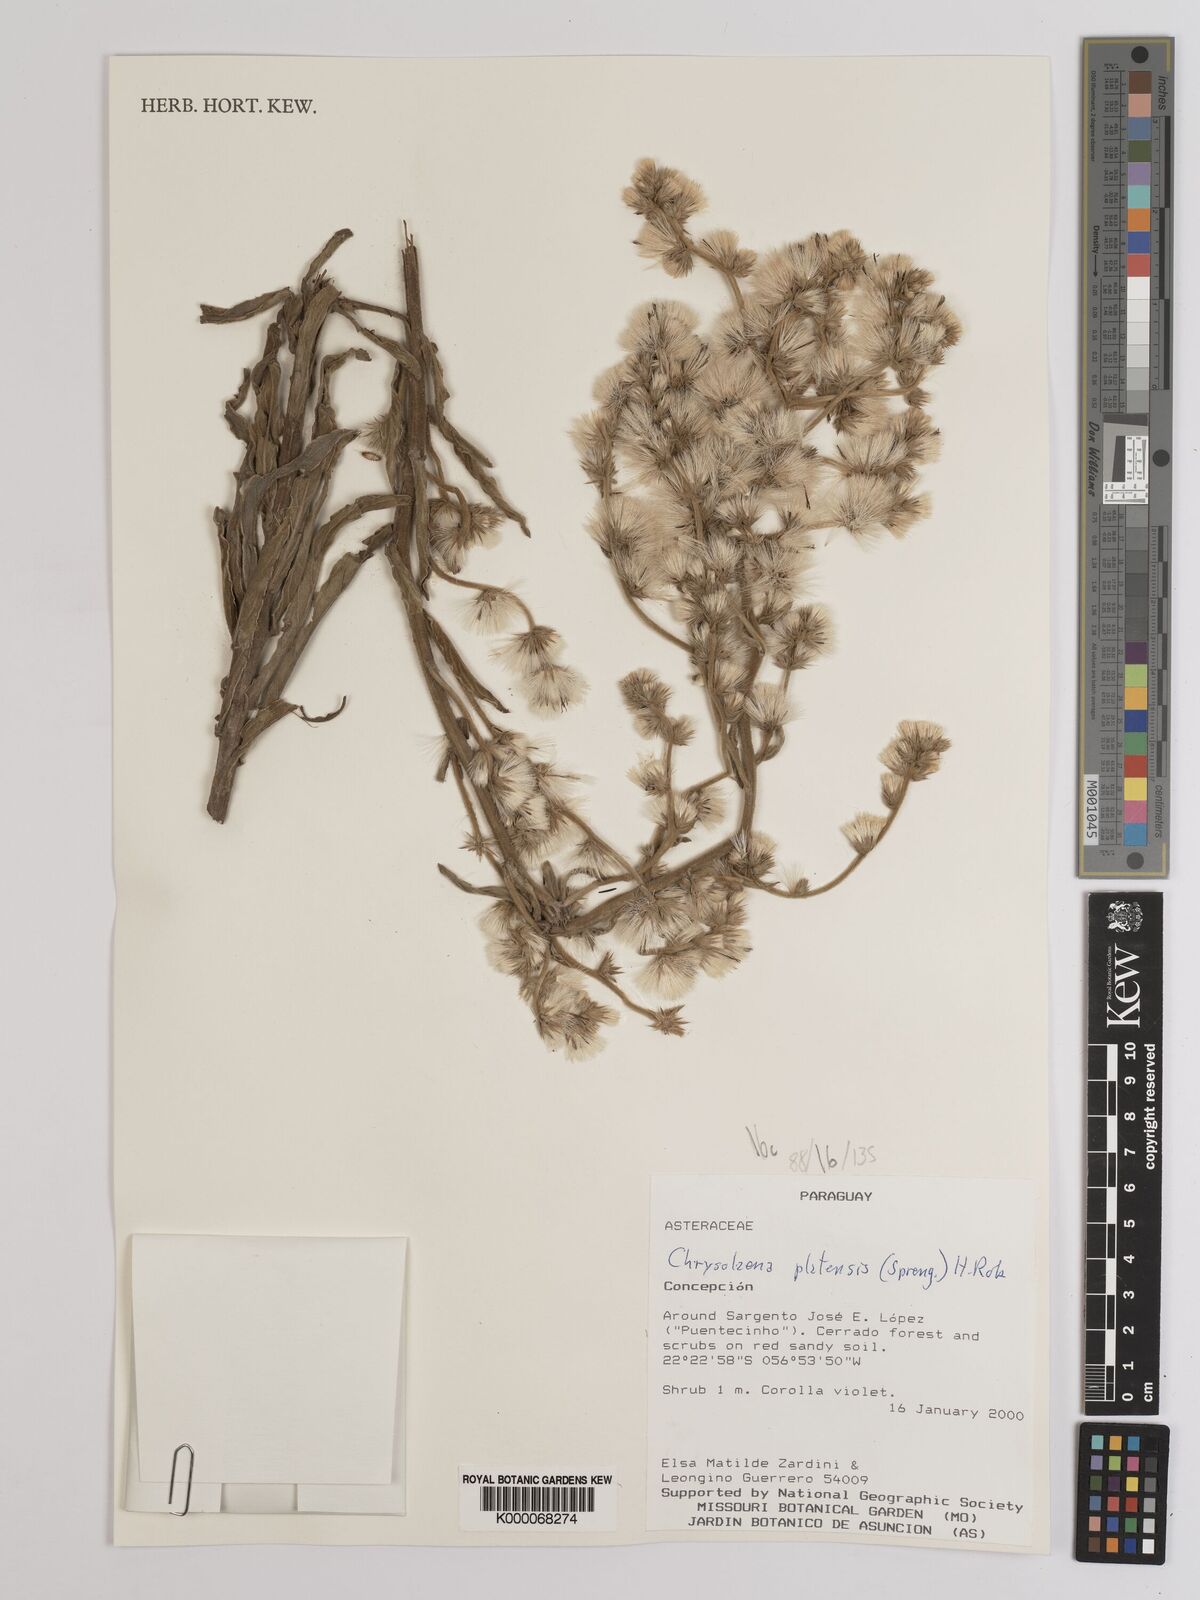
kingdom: Plantae
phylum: Tracheophyta
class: Magnoliopsida
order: Asterales
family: Asteraceae
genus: Chrysolaena
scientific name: Chrysolaena platensis
